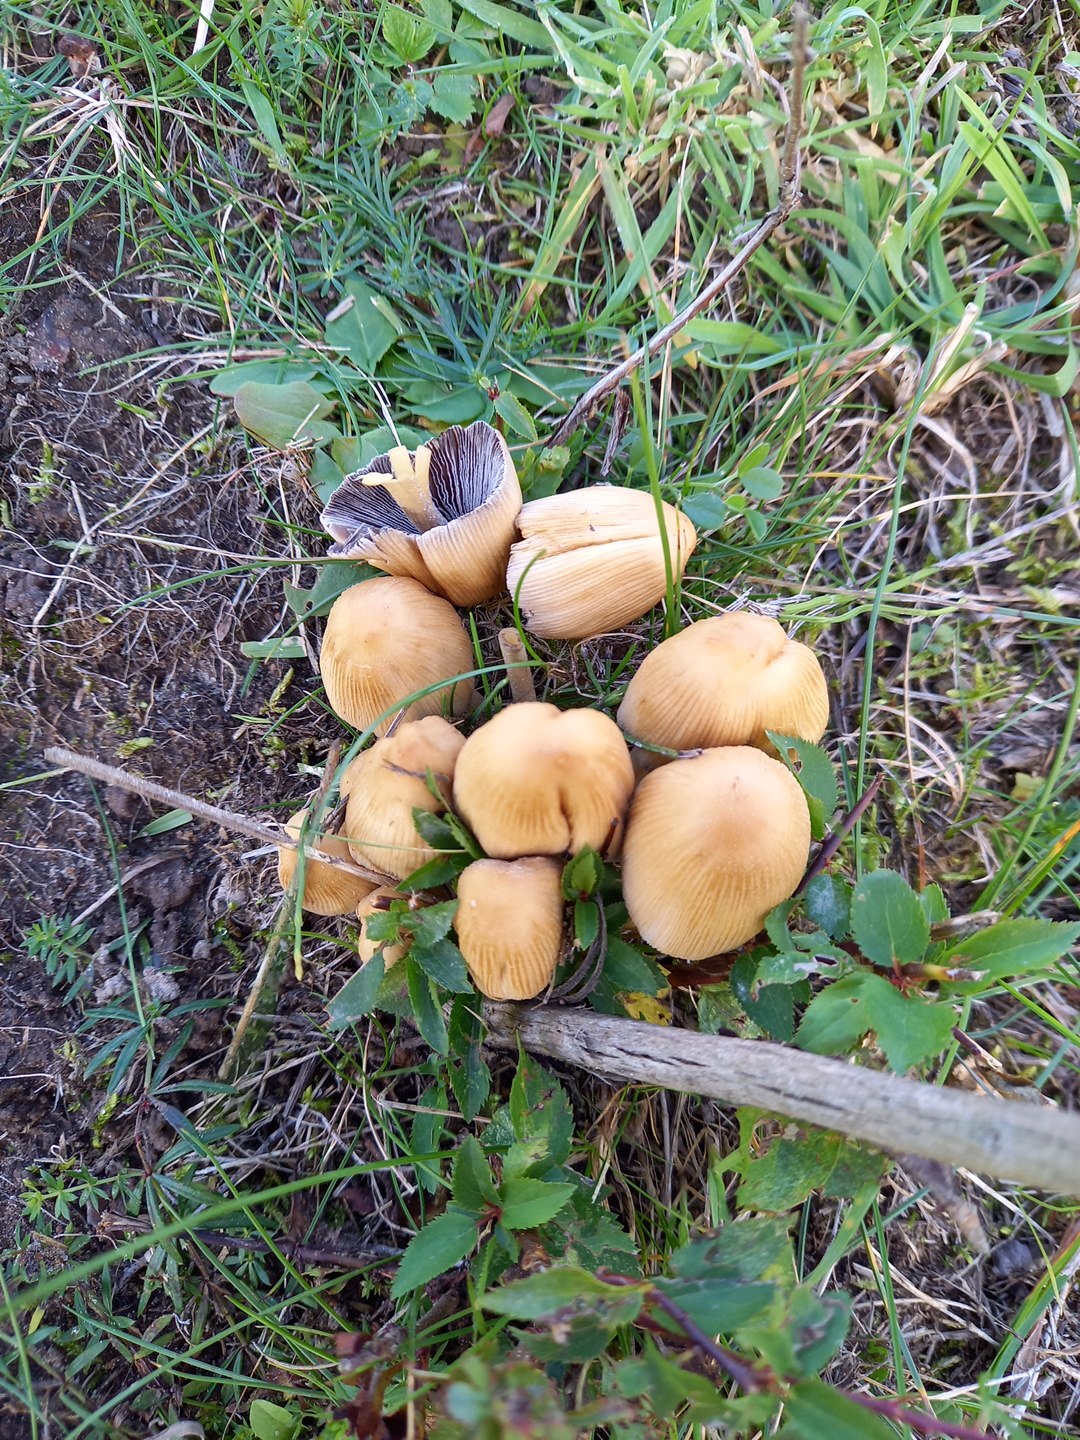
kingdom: Fungi
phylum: Basidiomycota
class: Agaricomycetes
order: Agaricales
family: Psathyrellaceae
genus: Coprinellus
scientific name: Coprinellus micaceus
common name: glimmer-blækhat
